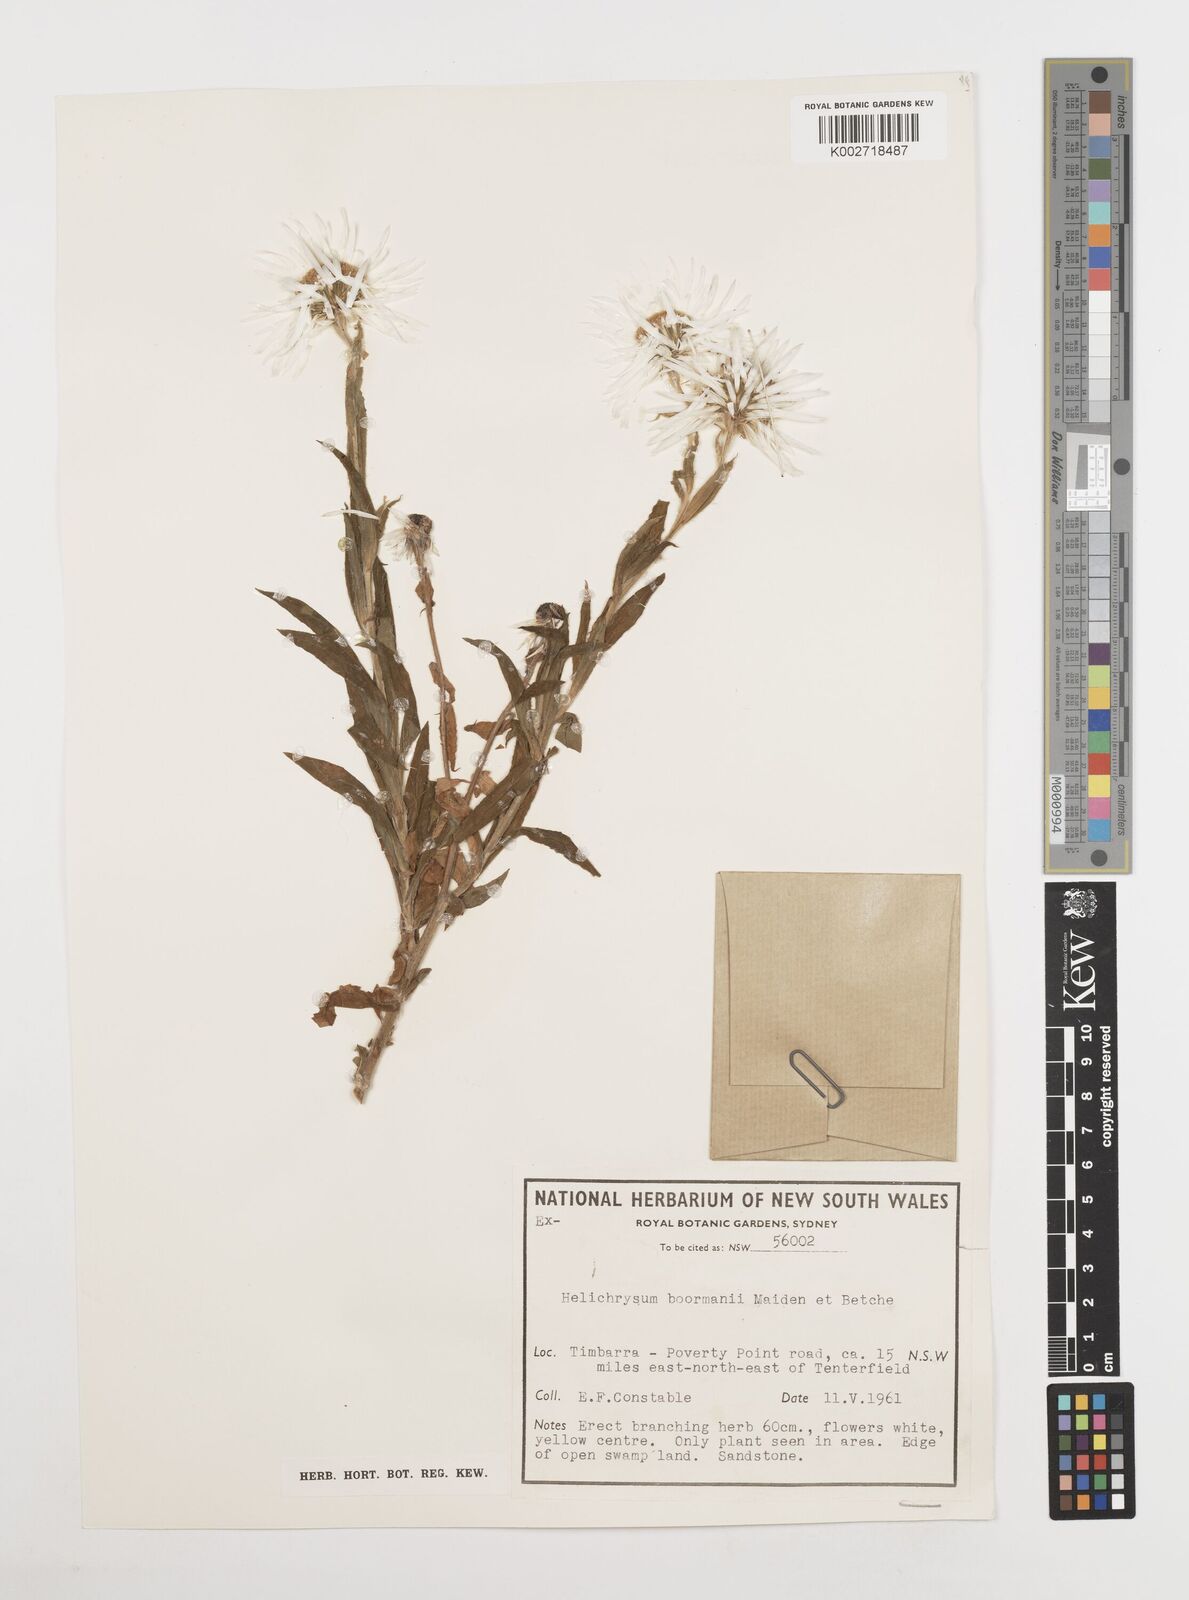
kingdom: Plantae
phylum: Tracheophyta
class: Magnoliopsida
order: Asterales
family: Asteraceae
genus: Leucozoma
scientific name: Leucozoma boormanii
